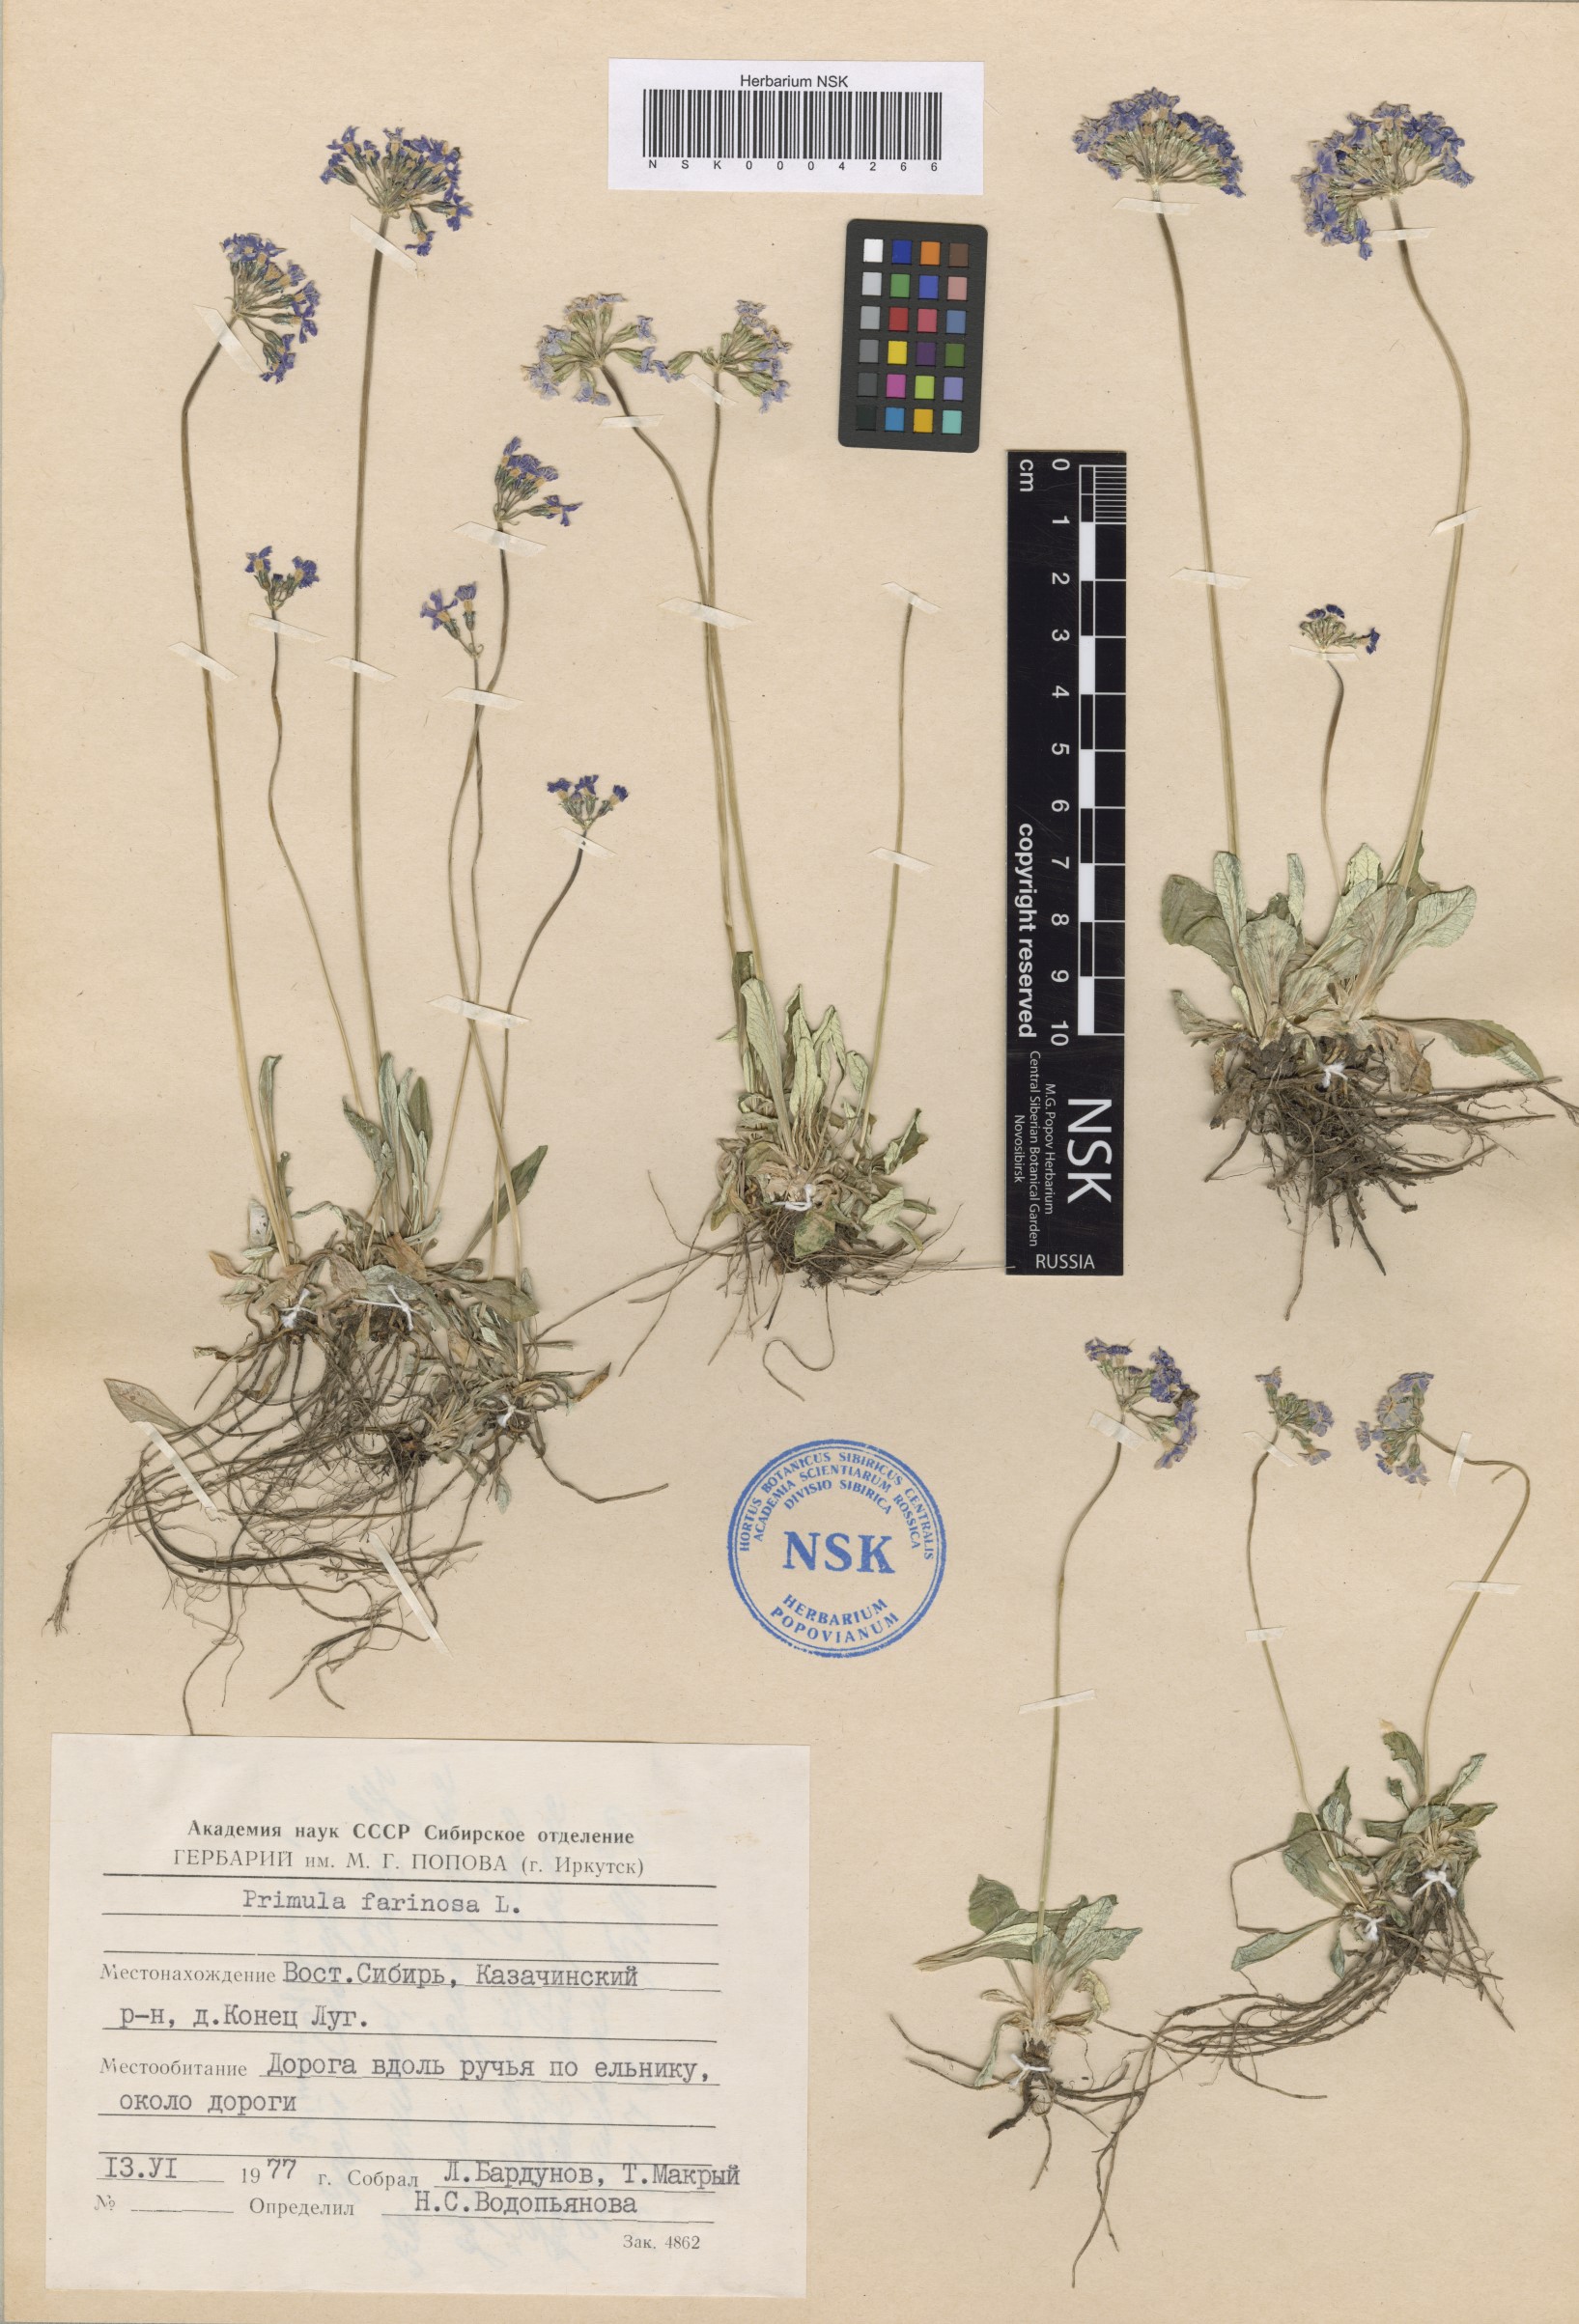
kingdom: Plantae
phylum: Tracheophyta
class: Magnoliopsida
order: Ericales
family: Primulaceae
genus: Primula
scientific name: Primula farinosa
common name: Bird's-eye primrose
